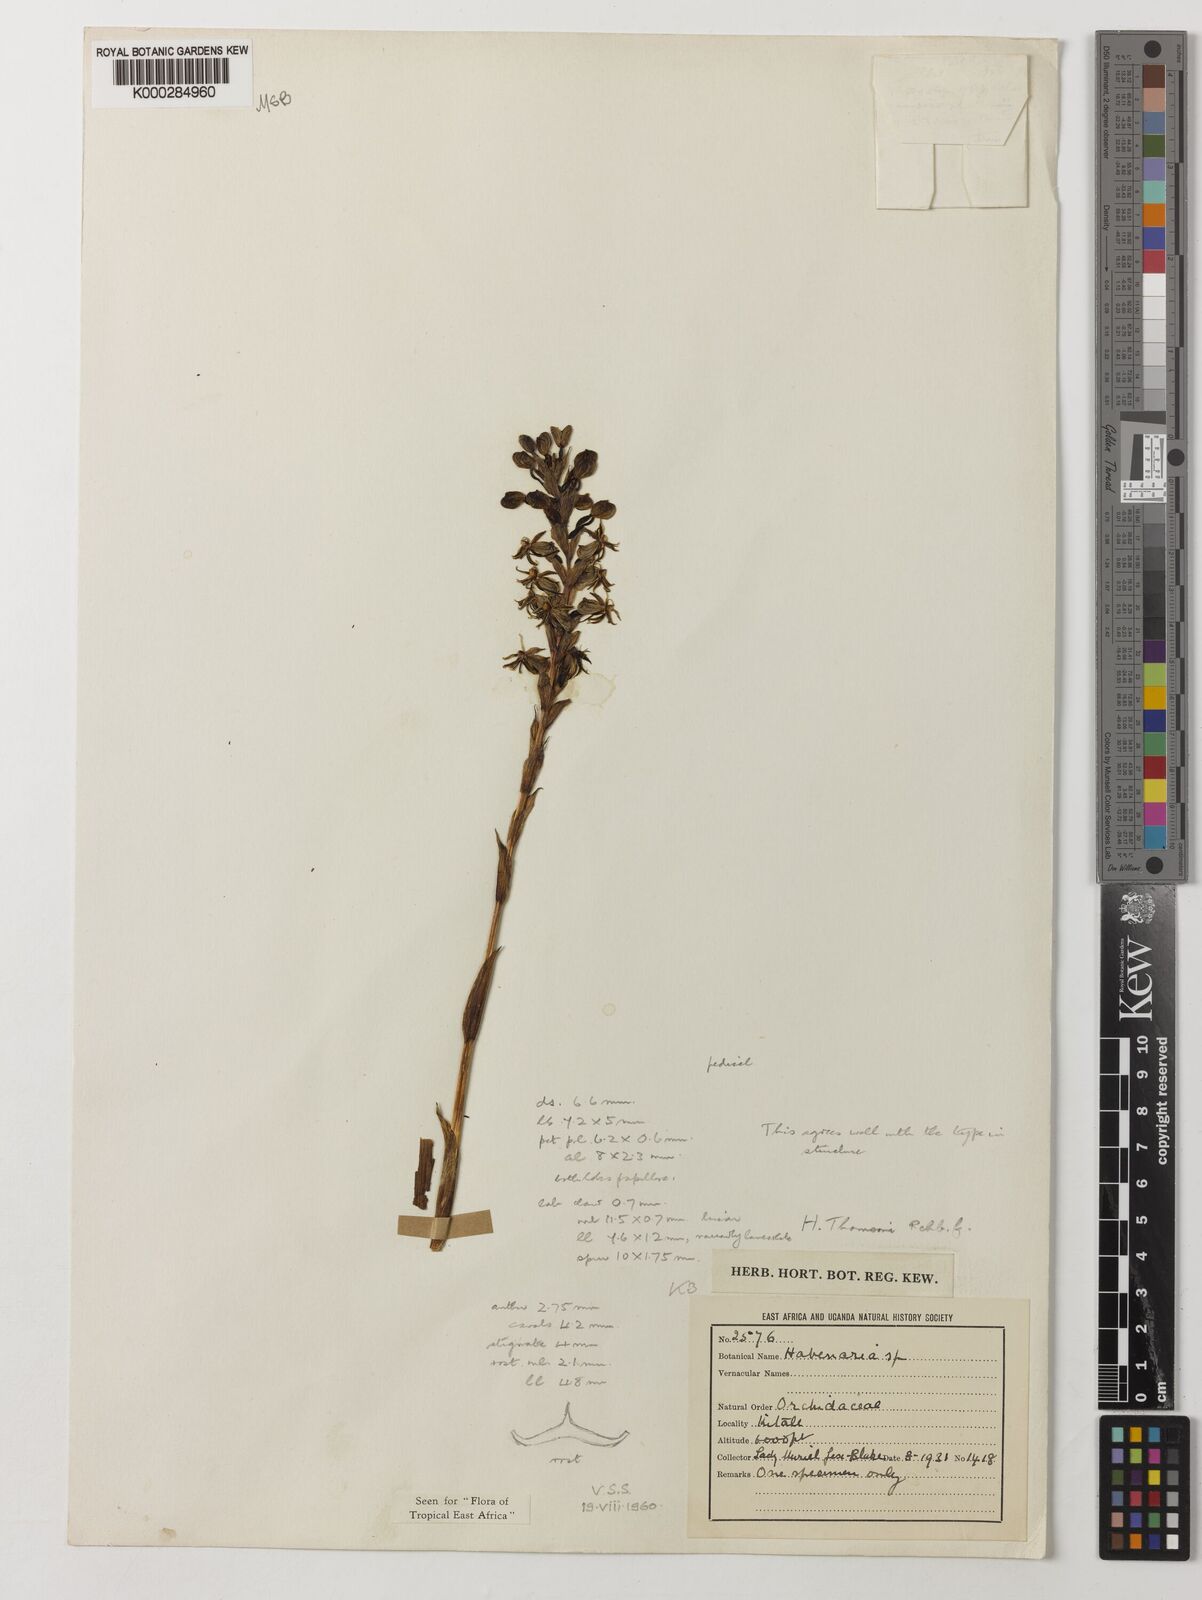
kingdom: Plantae
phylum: Tracheophyta
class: Liliopsida
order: Asparagales
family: Orchidaceae
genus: Habenaria
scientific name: Habenaria thomsonii
